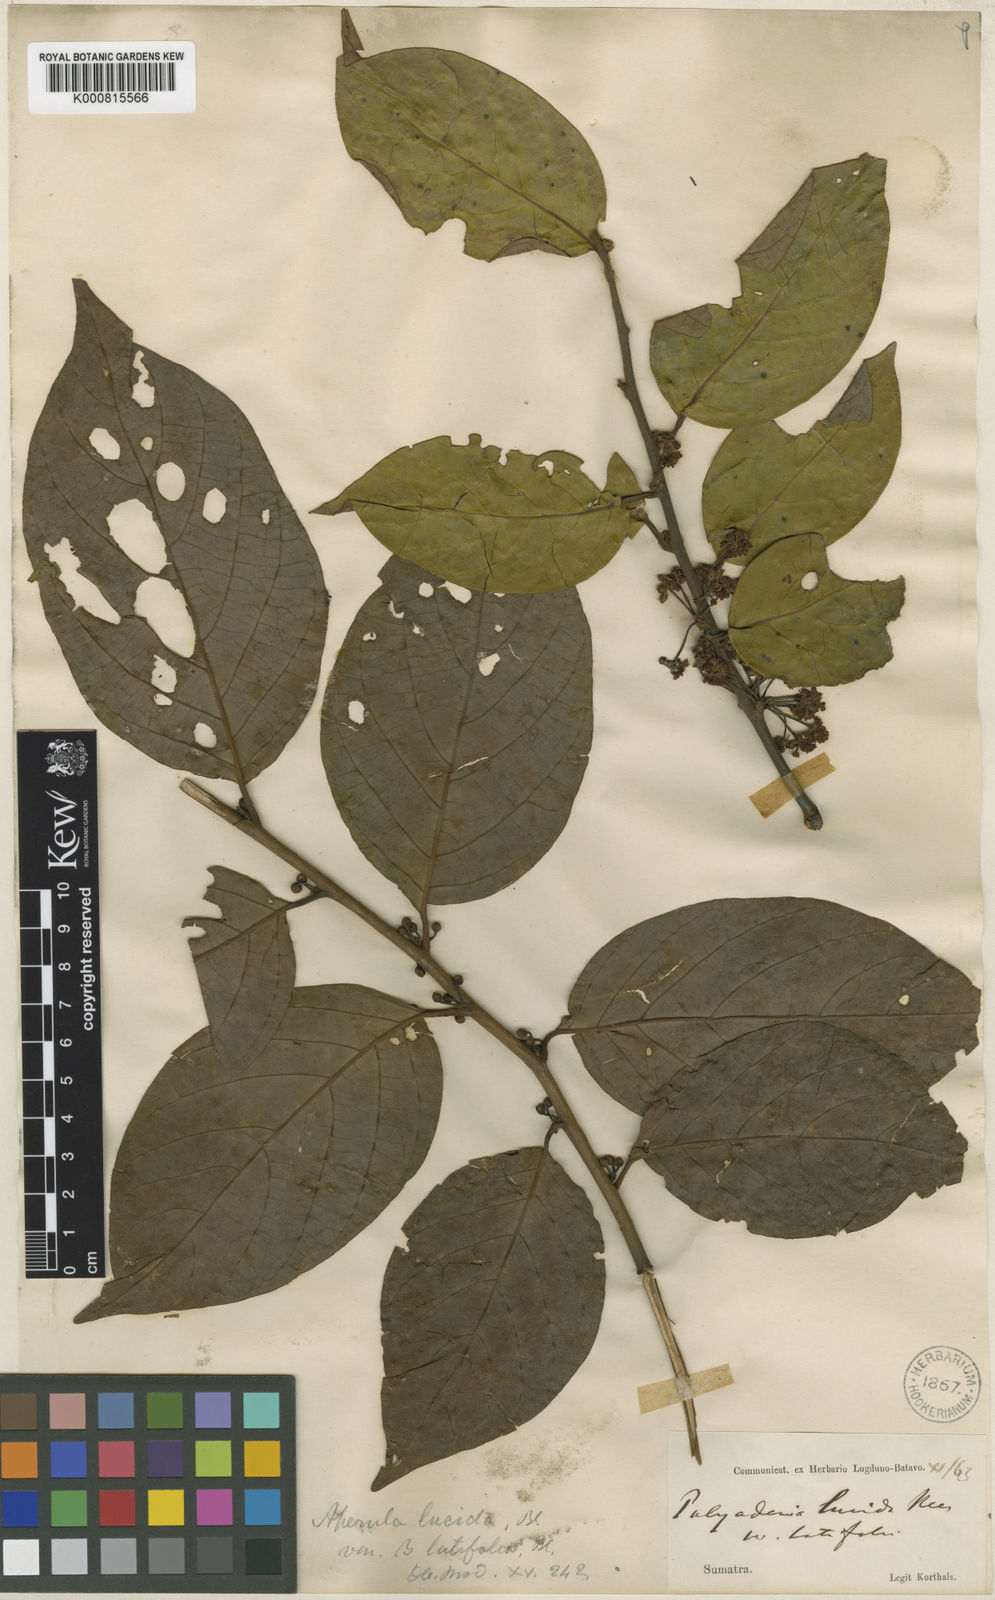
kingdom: Plantae
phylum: Tracheophyta
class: Magnoliopsida
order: Laurales
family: Lauraceae
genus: Lindera
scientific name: Lindera lucida
